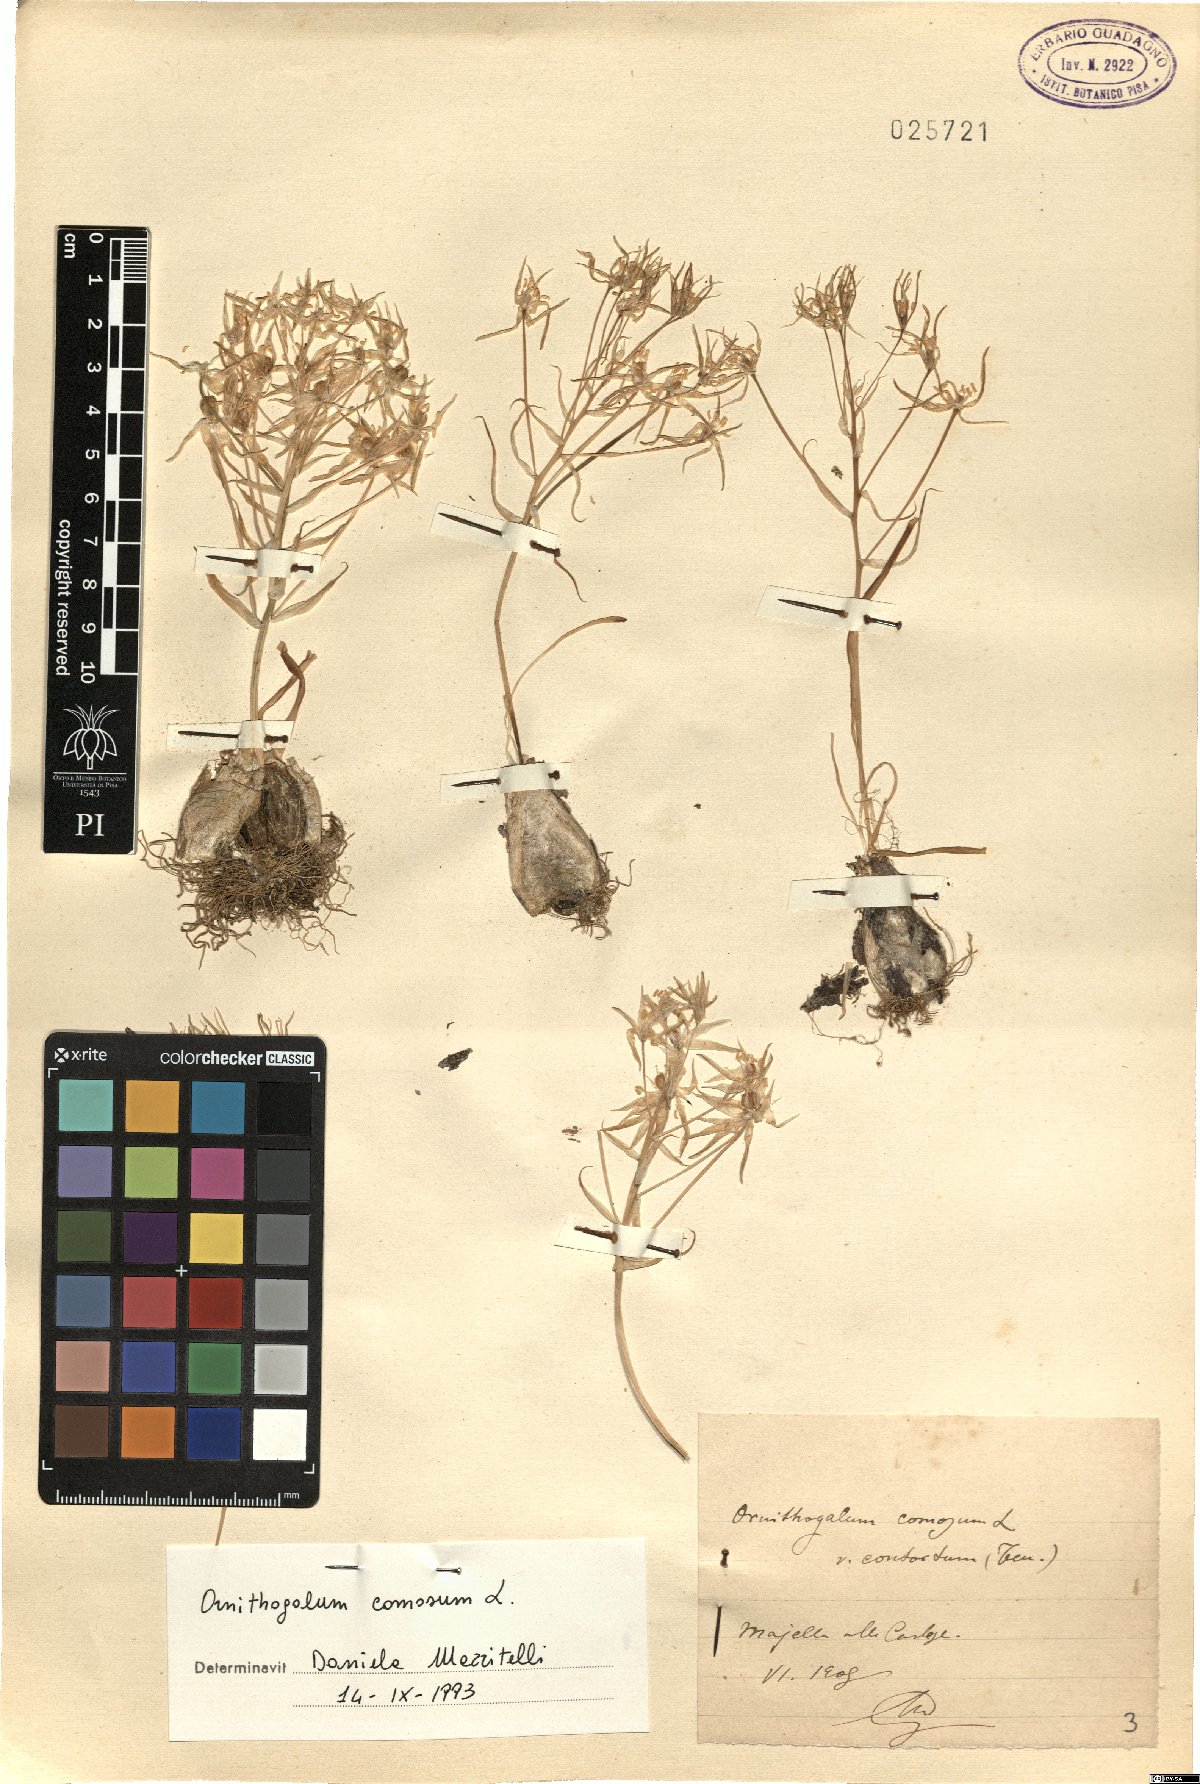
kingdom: Plantae
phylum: Tracheophyta
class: Liliopsida
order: Asparagales
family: Asparagaceae
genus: Ornithogalum
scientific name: Ornithogalum comosum
